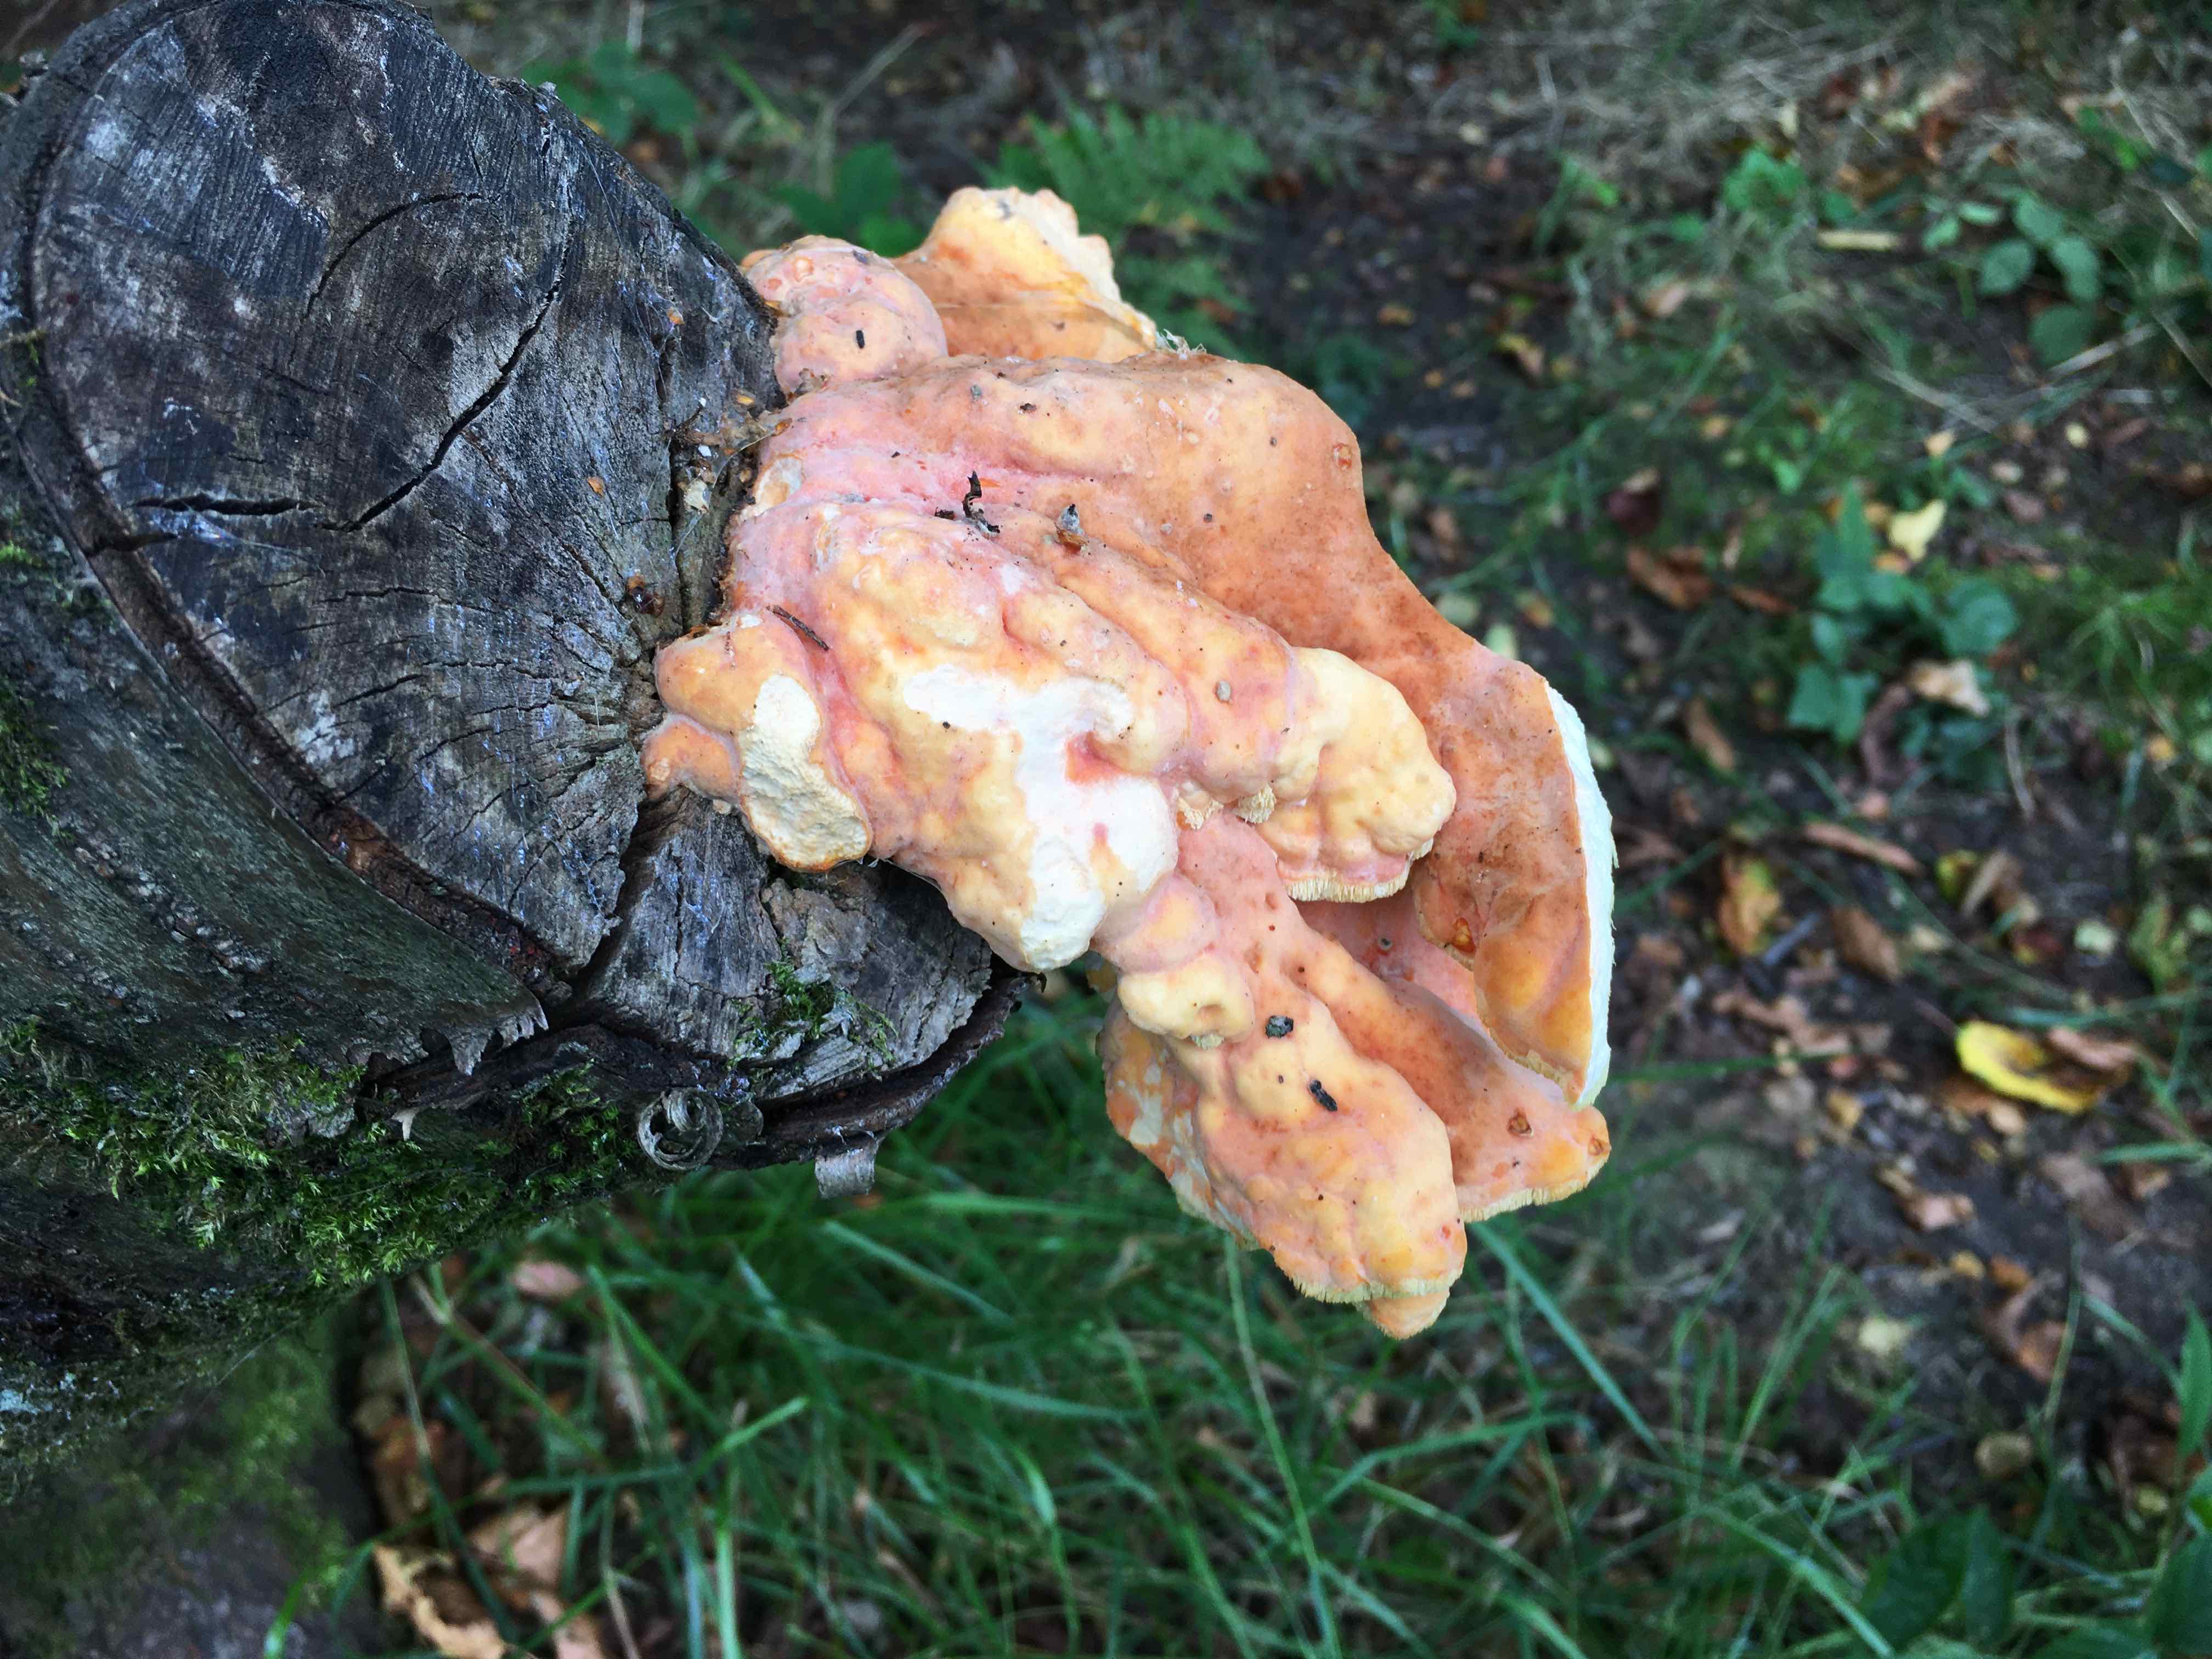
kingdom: Fungi
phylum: Basidiomycota
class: Agaricomycetes
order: Polyporales
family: Laetiporaceae
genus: Laetiporus
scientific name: Laetiporus sulphureus
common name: svovlporesvamp
